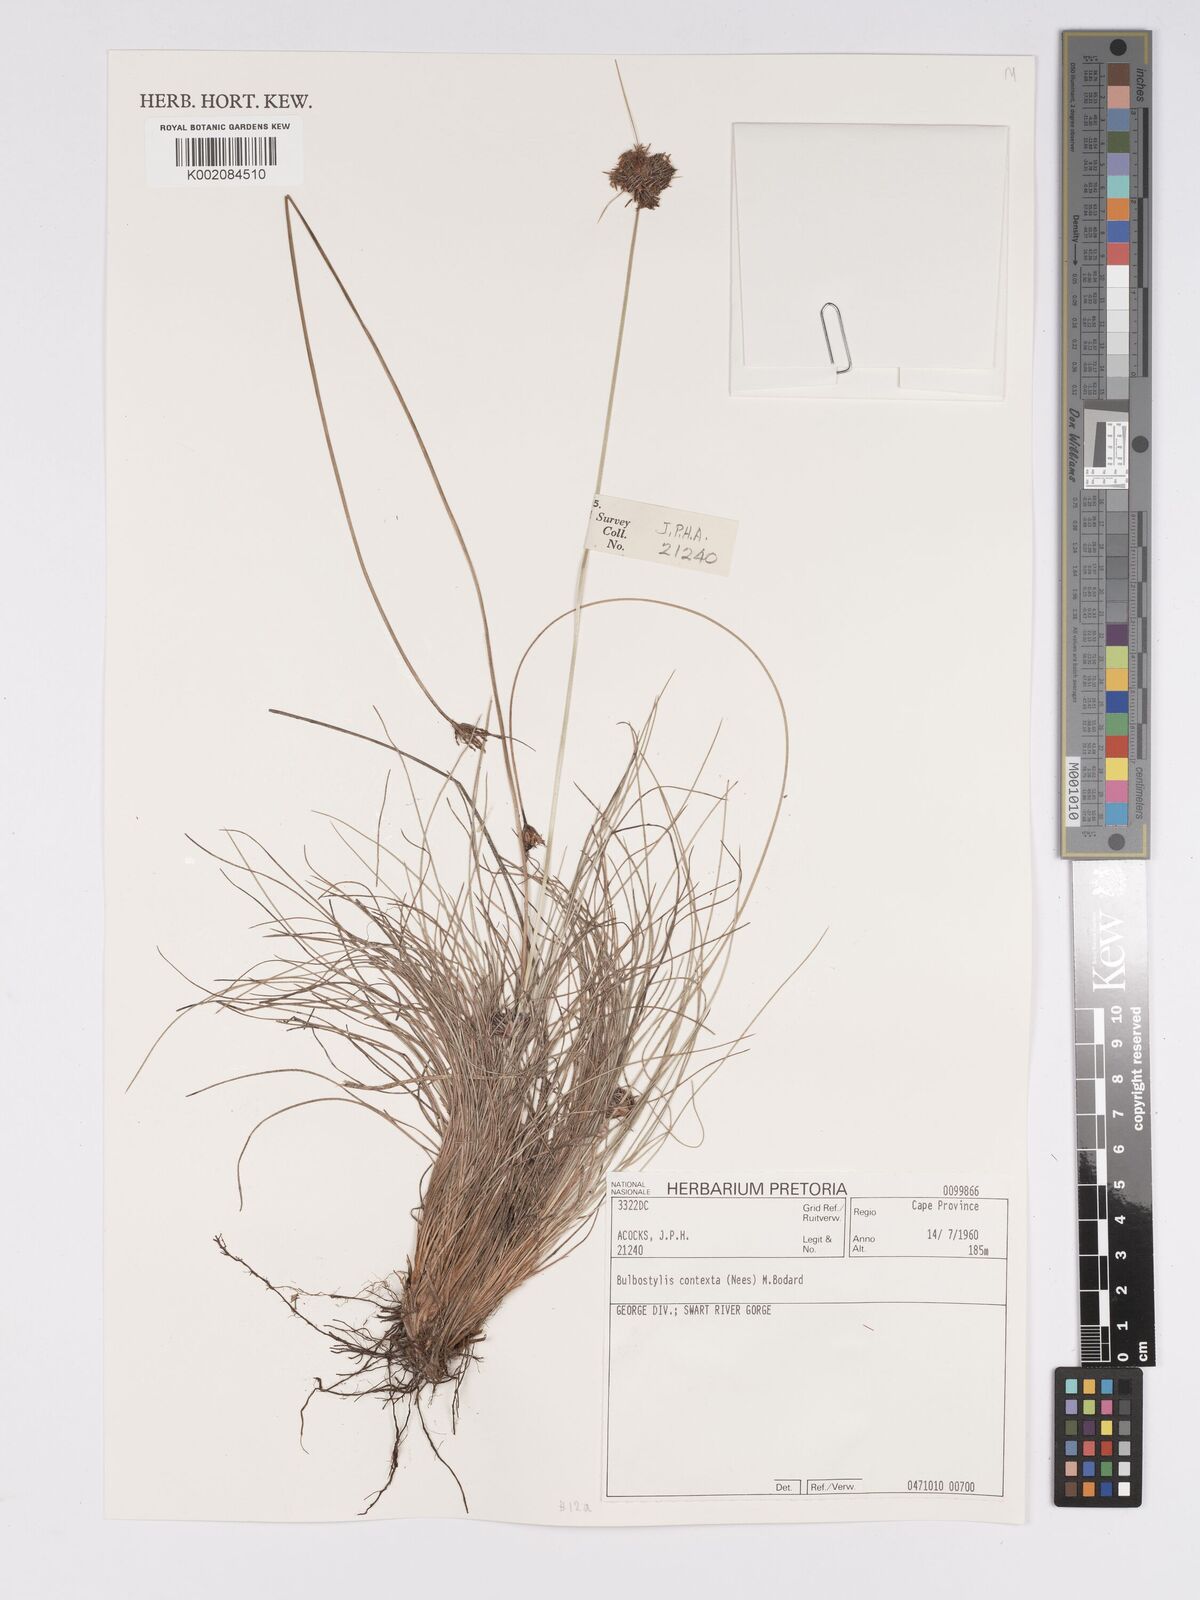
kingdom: Plantae
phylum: Tracheophyta
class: Liliopsida
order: Poales
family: Cyperaceae
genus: Bulbostylis
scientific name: Bulbostylis contexta
